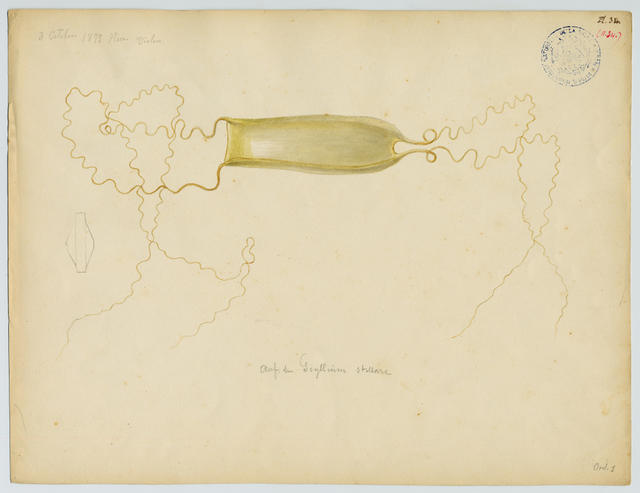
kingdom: Animalia
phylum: Chordata
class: Elasmobranchii
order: Carcharhiniformes
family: Scyliorhinidae
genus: Scyliorhinus
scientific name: Scyliorhinus
